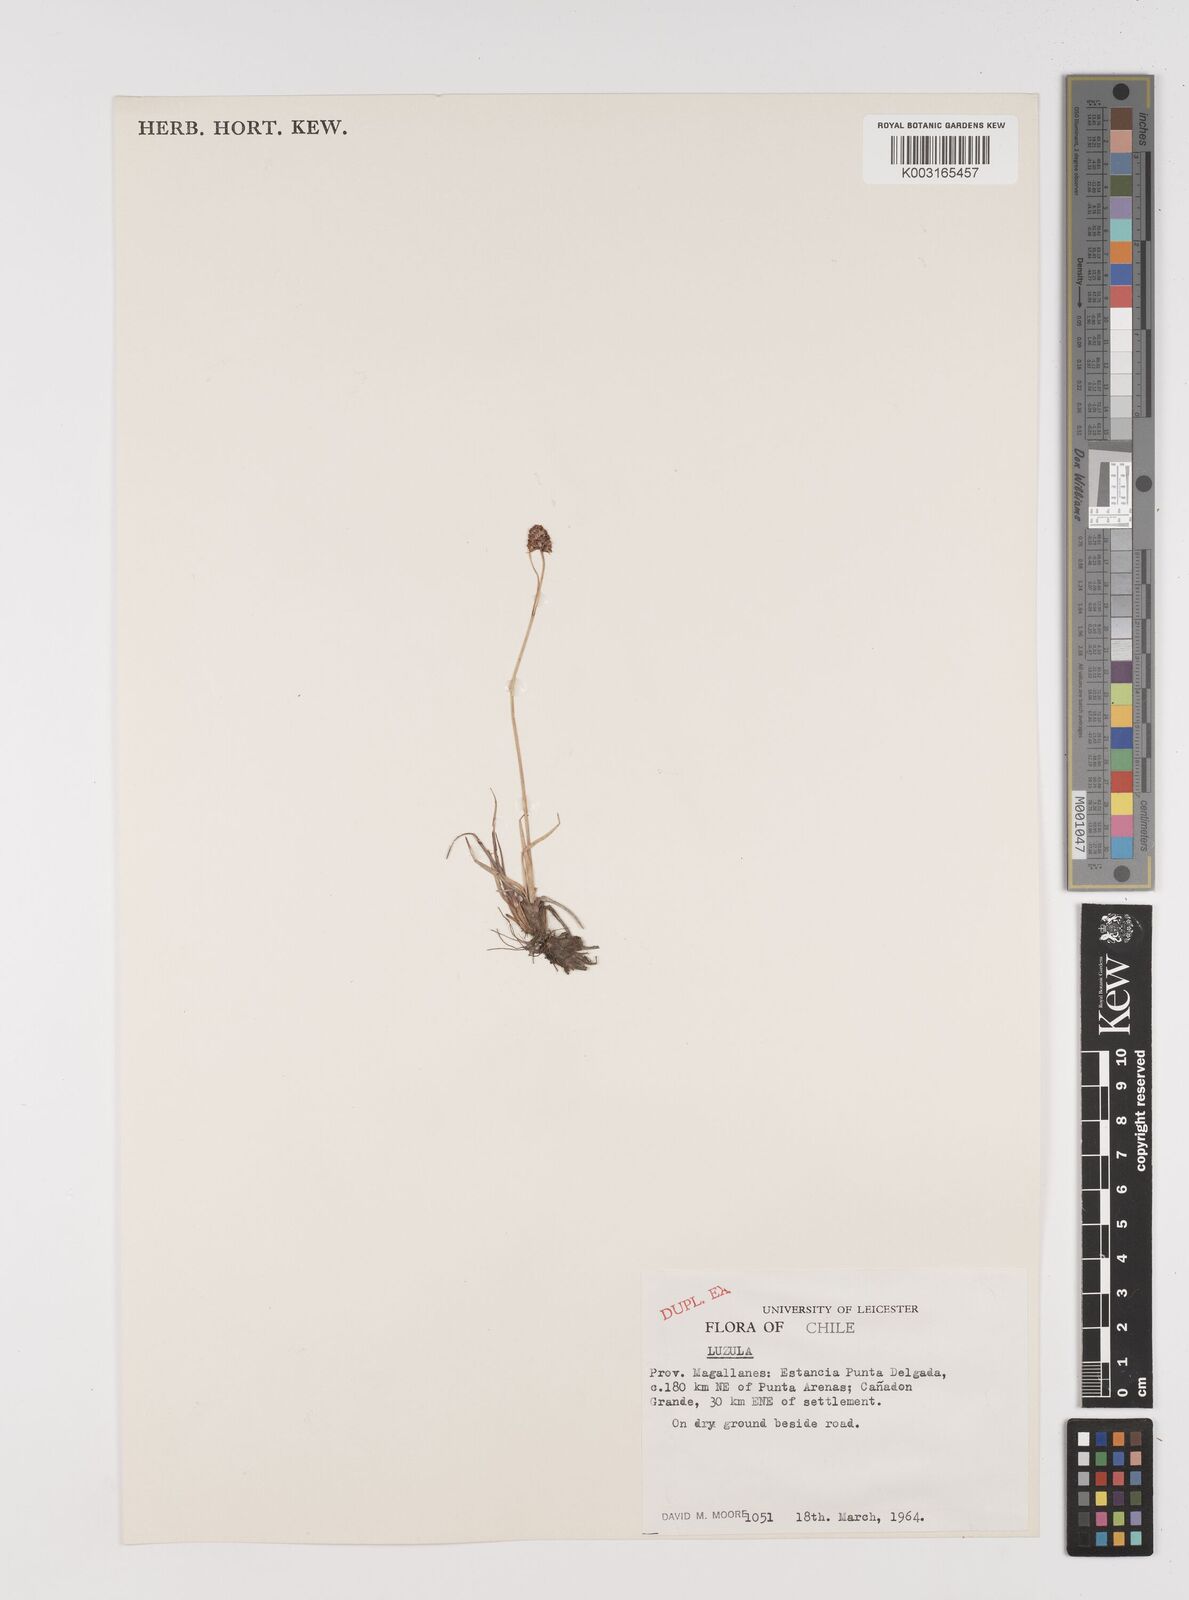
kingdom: Plantae
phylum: Tracheophyta
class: Liliopsida
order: Poales
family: Juncaceae
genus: Luzula
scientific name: Luzula
